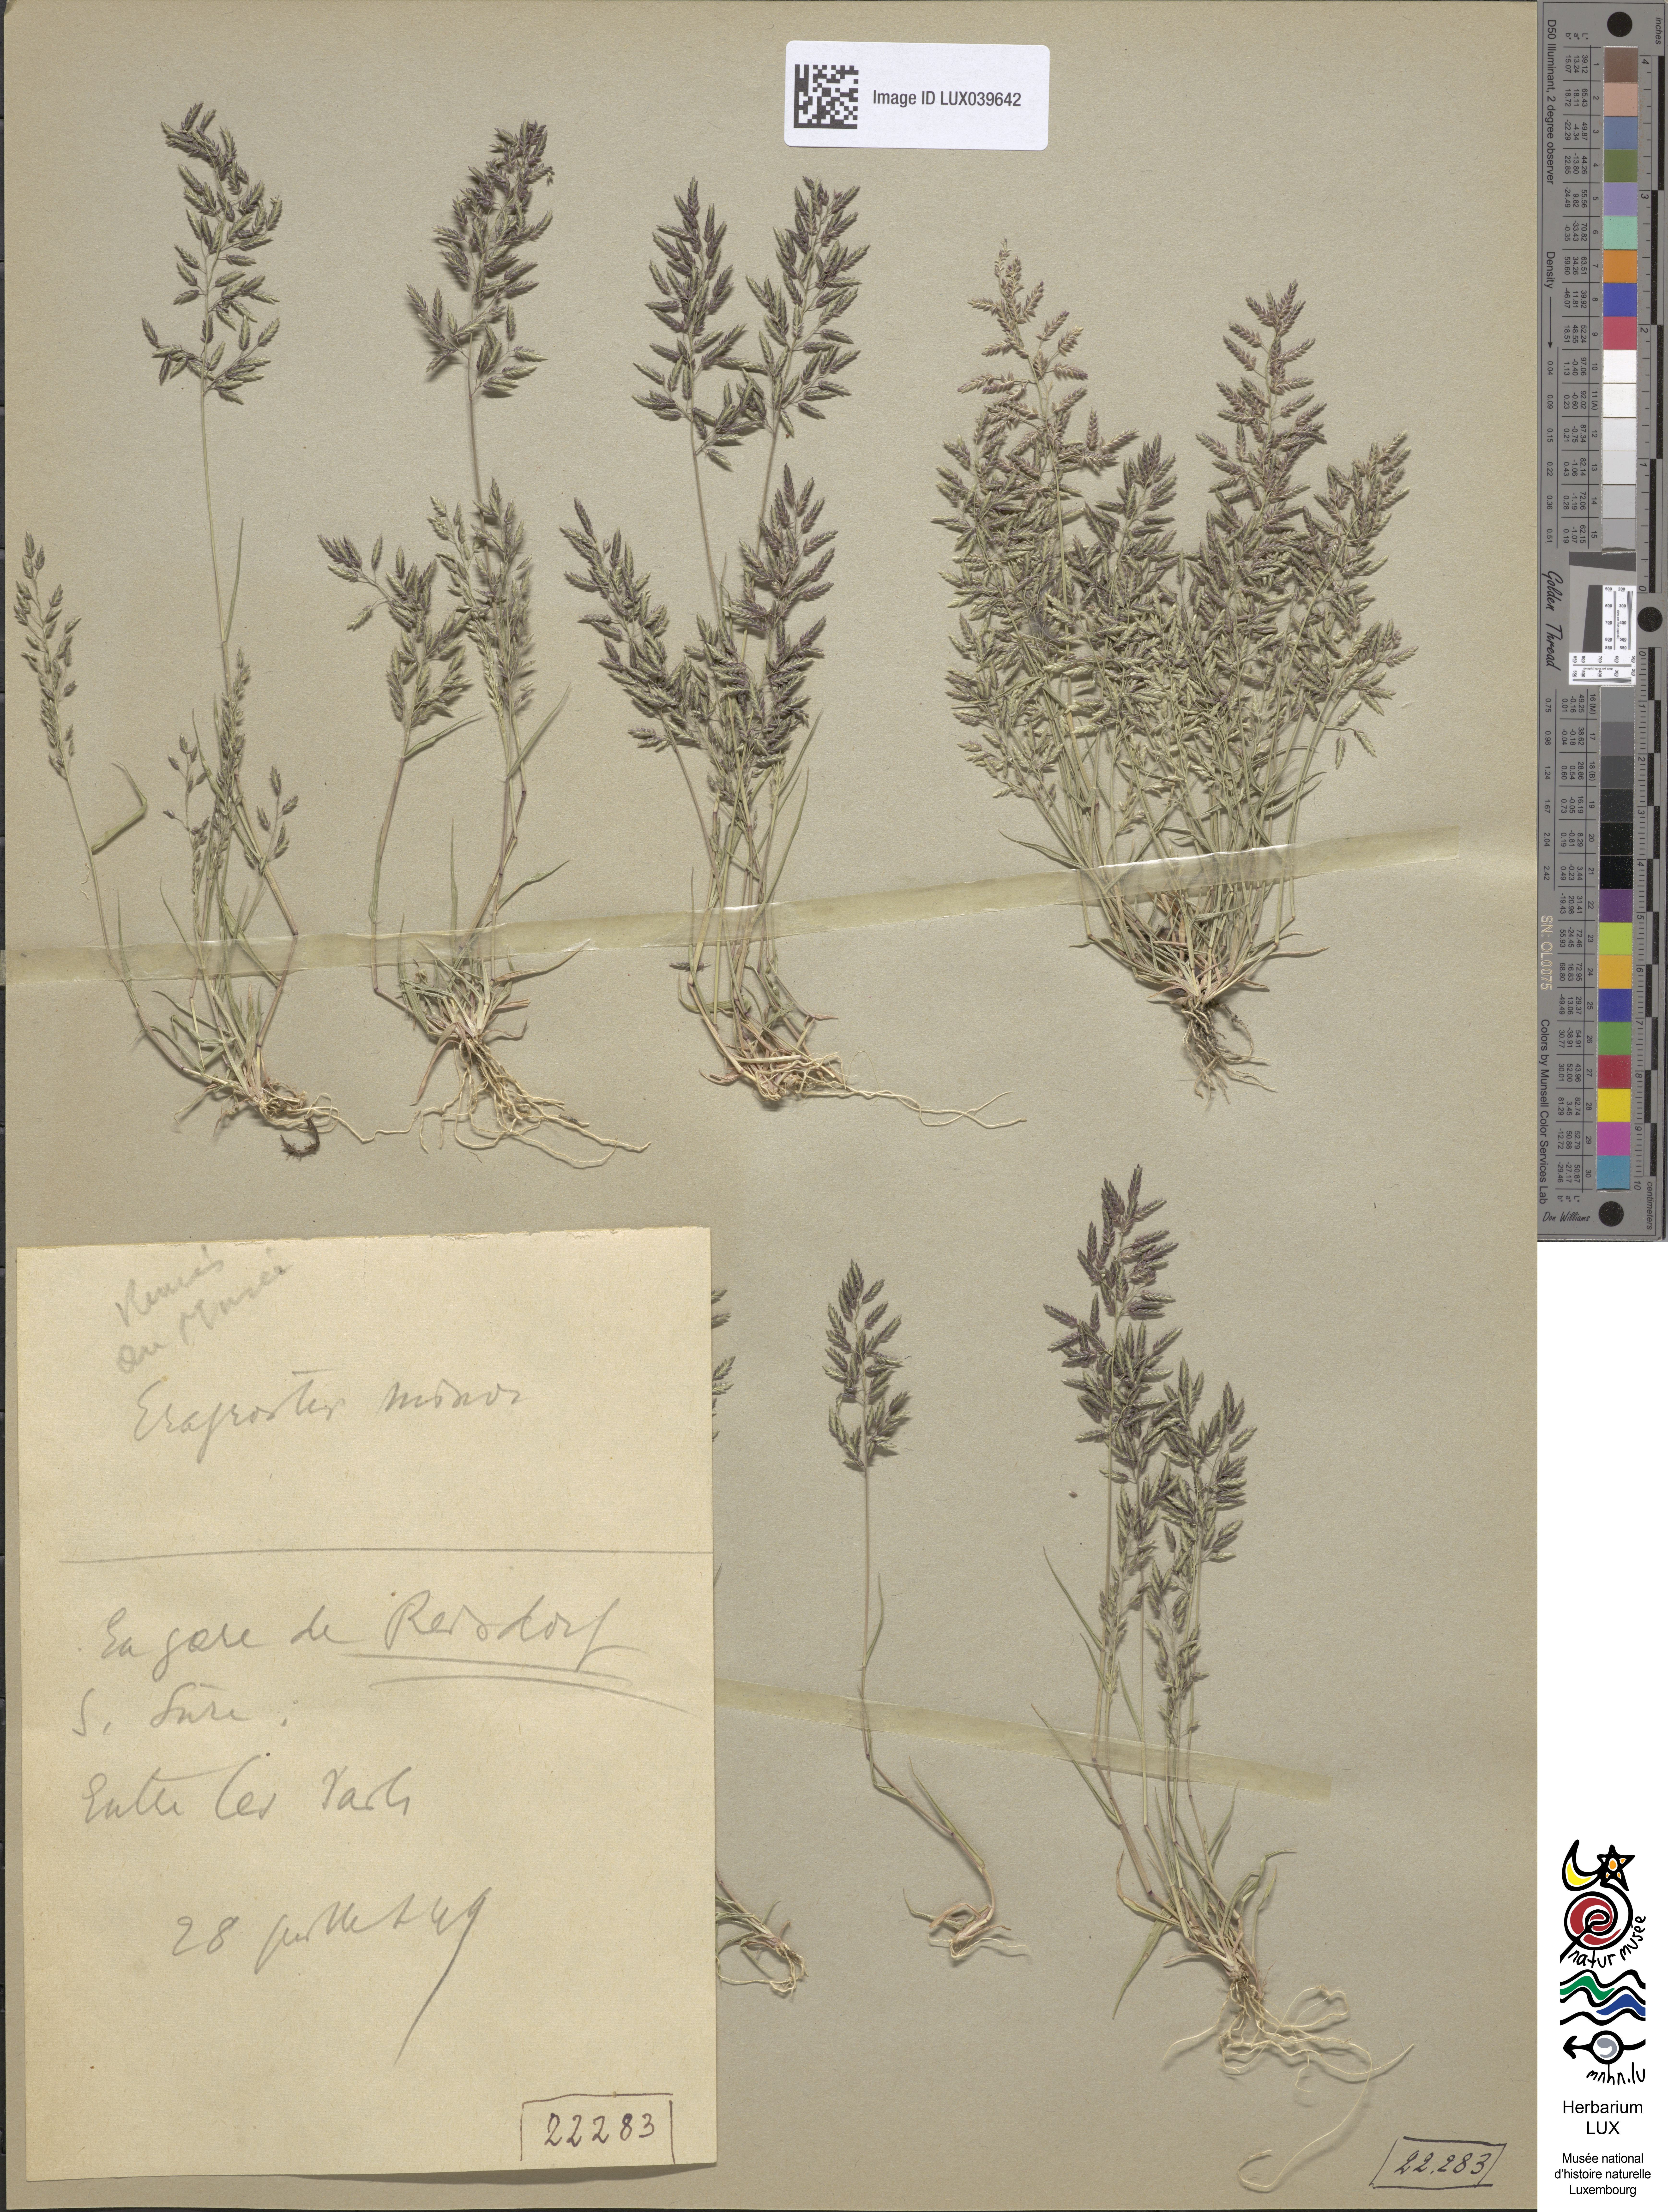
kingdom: Plantae
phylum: Tracheophyta
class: Liliopsida
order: Poales
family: Poaceae
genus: Eragrostis
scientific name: Eragrostis minor
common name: Small love-grass
